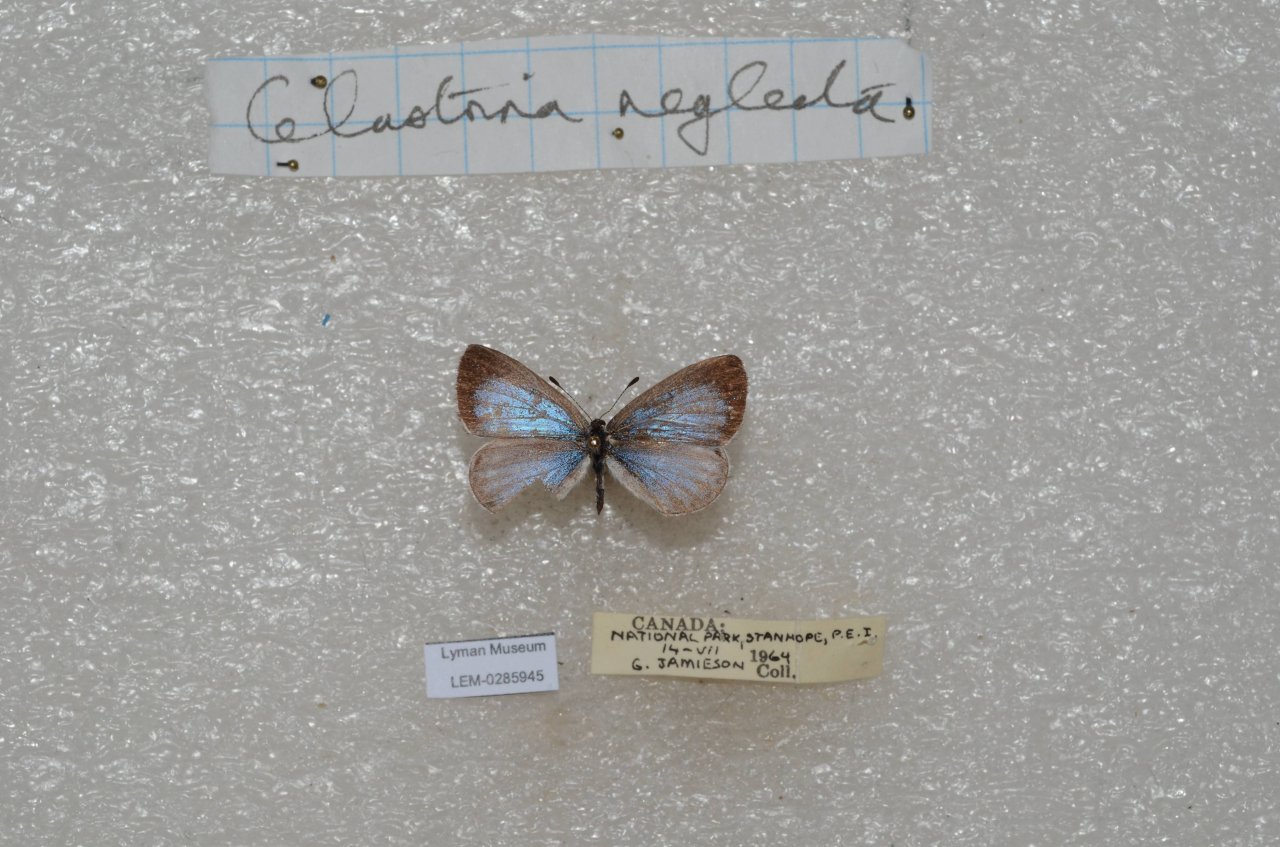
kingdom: Animalia
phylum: Arthropoda
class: Insecta
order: Lepidoptera
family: Lycaenidae
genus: Celastrina
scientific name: Celastrina
